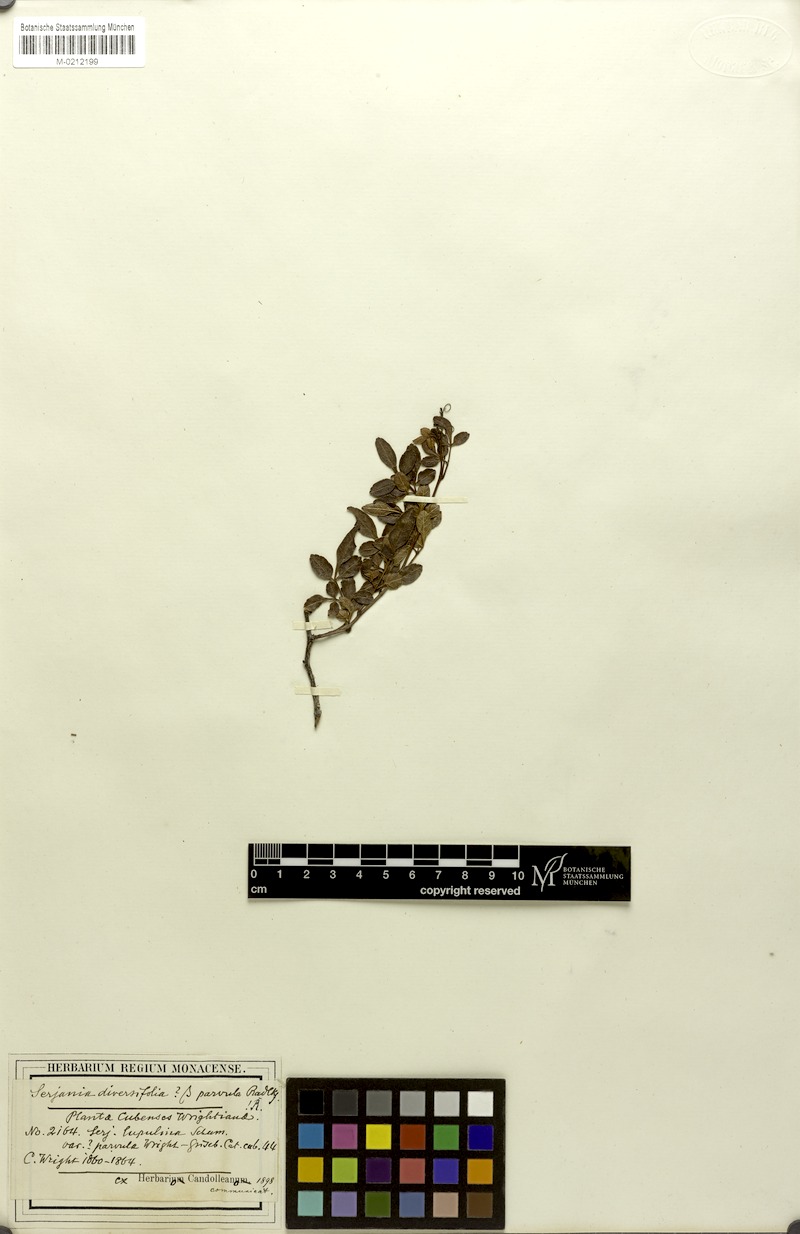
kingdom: Plantae
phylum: Tracheophyta
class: Magnoliopsida
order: Sapindales
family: Sapindaceae
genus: Serjania
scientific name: Serjania diversifolia
